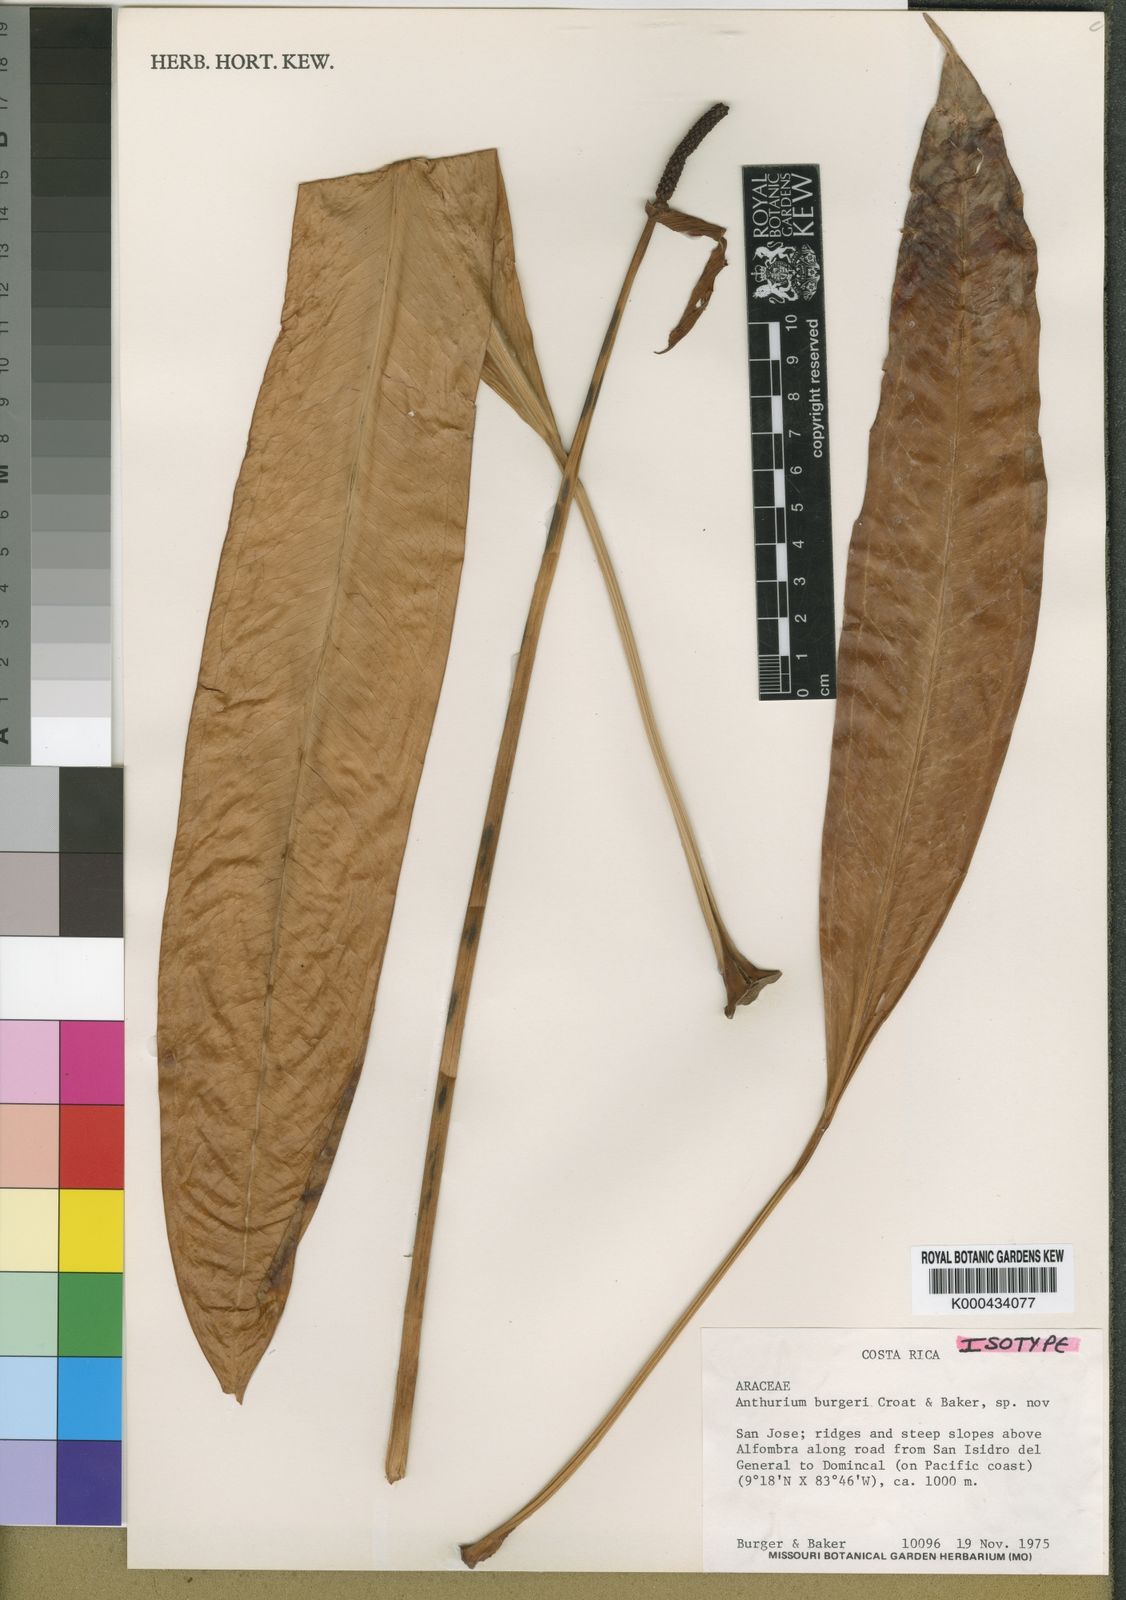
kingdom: Plantae
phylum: Tracheophyta
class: Liliopsida
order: Alismatales
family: Araceae
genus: Anthurium
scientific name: Anthurium burgeri
